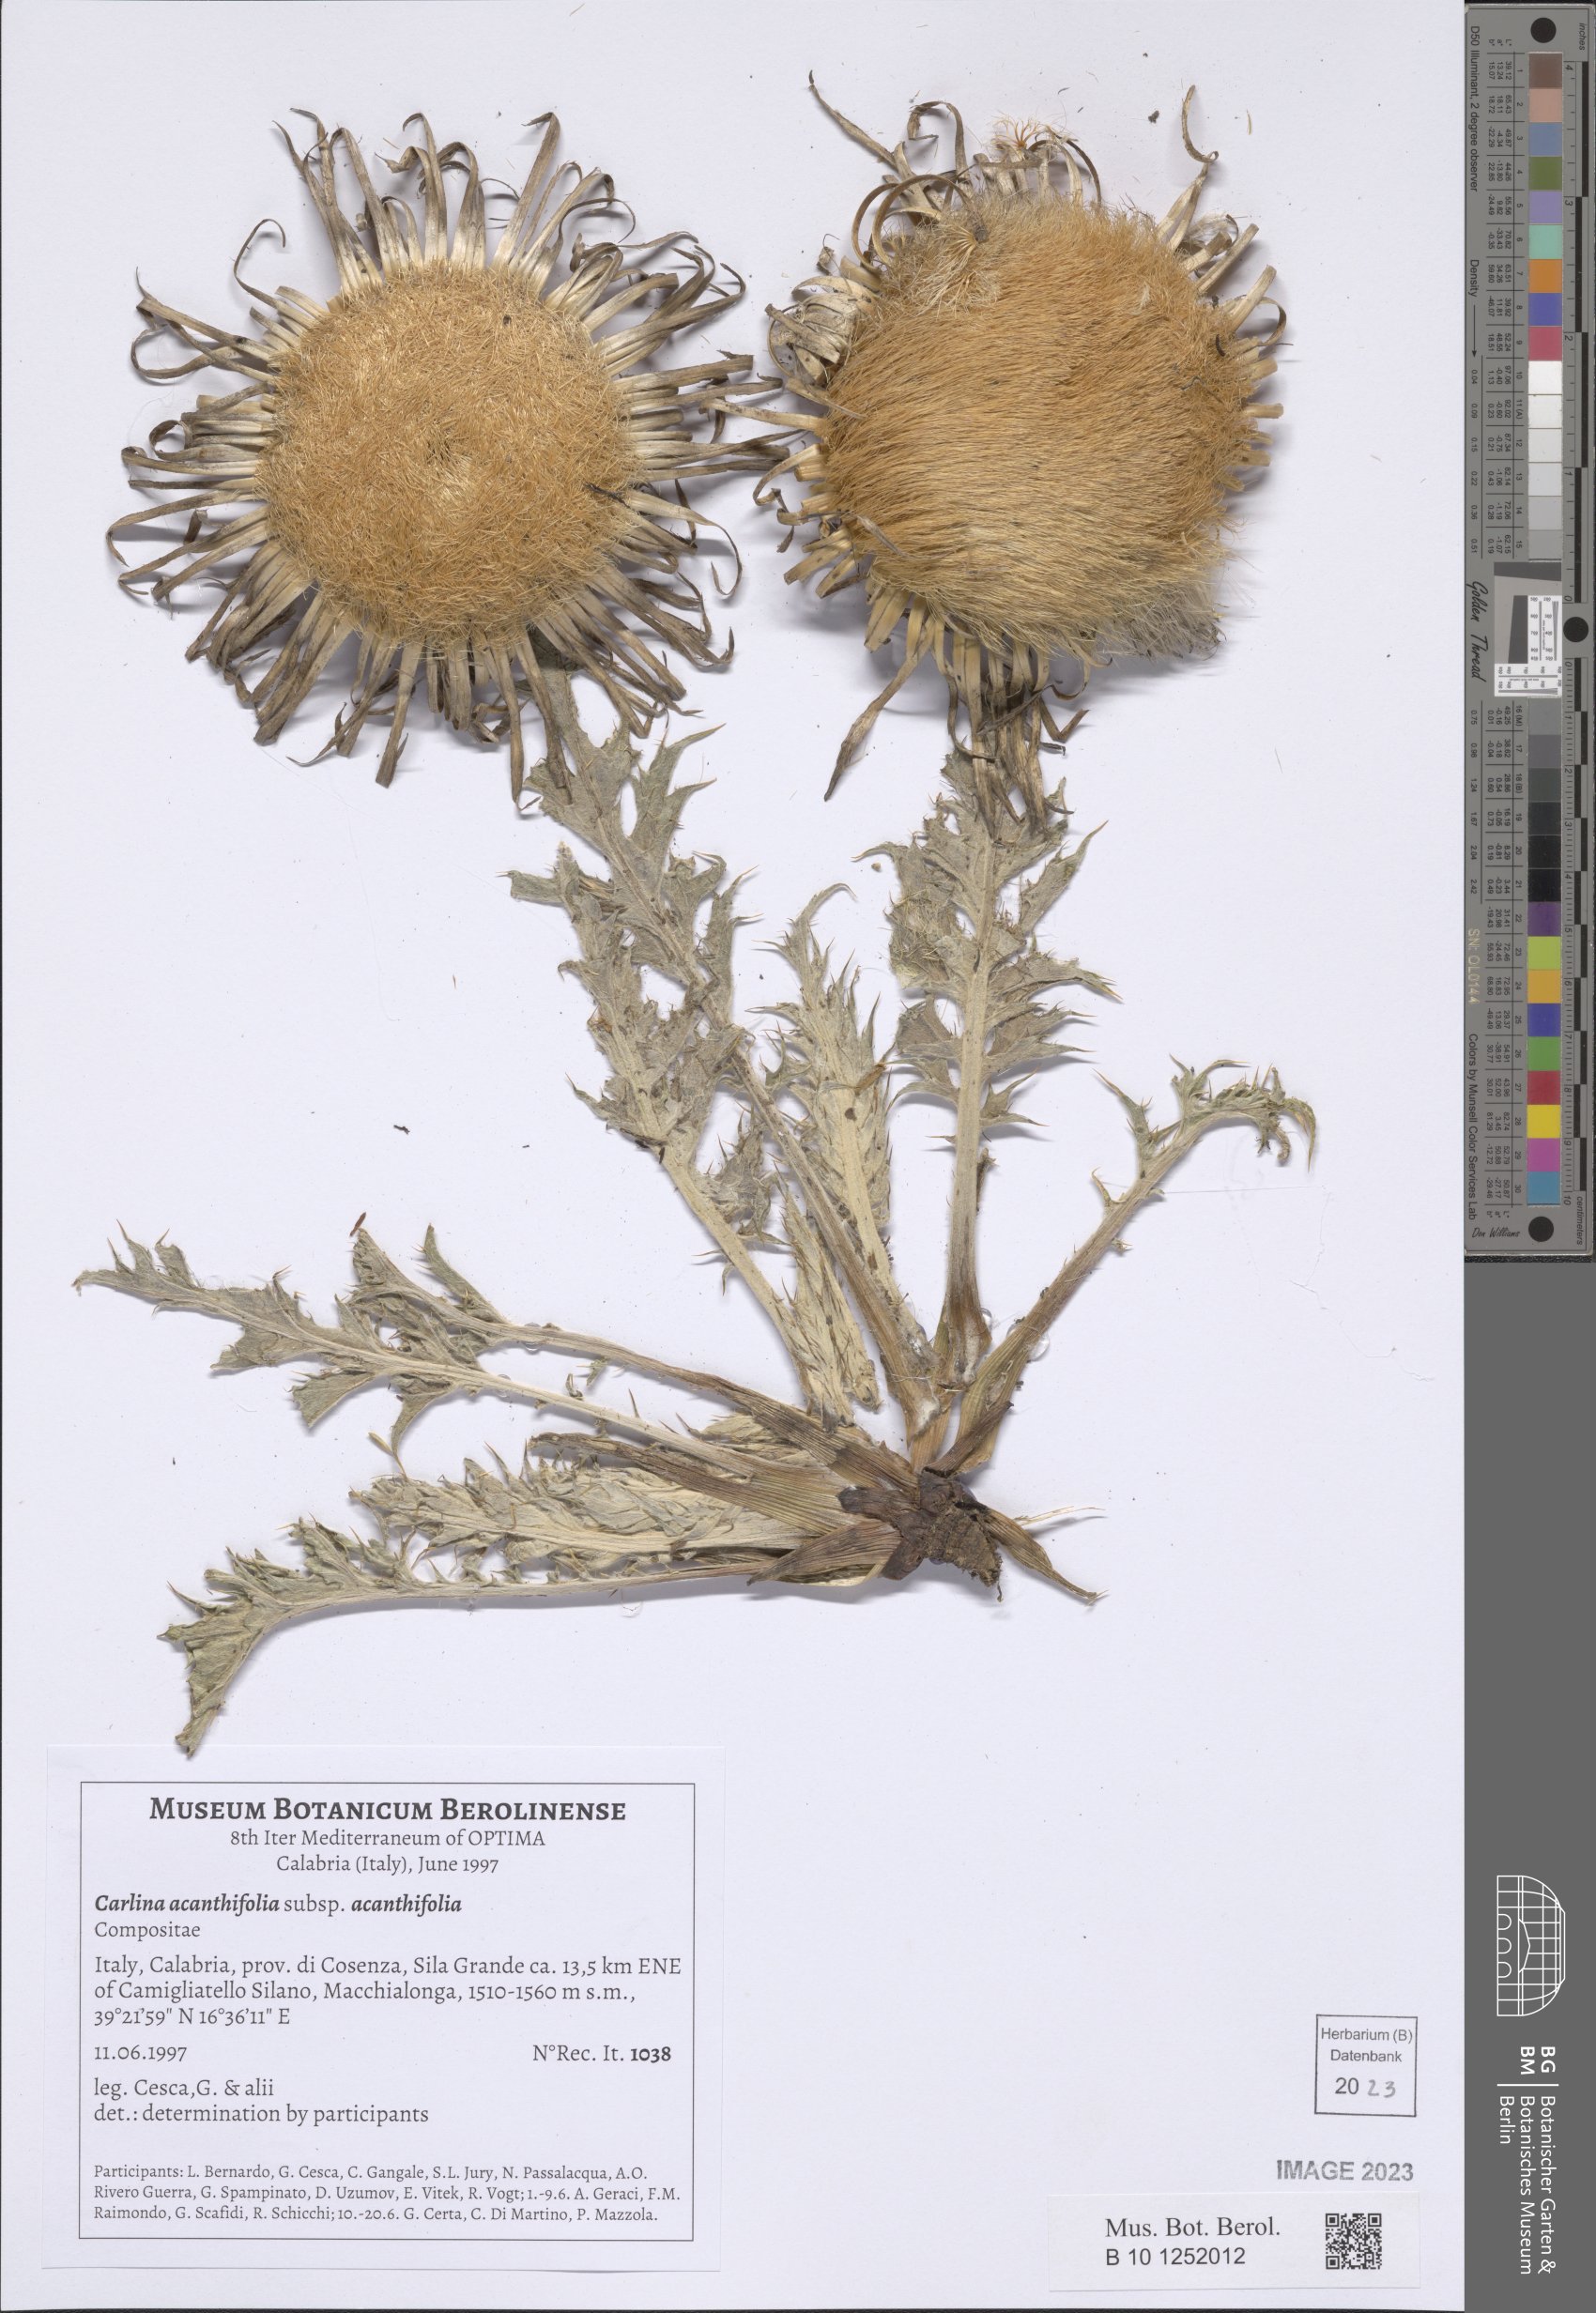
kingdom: Plantae
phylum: Tracheophyta
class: Magnoliopsida
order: Asterales
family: Asteraceae
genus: Carlina
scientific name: Carlina acanthifolia
